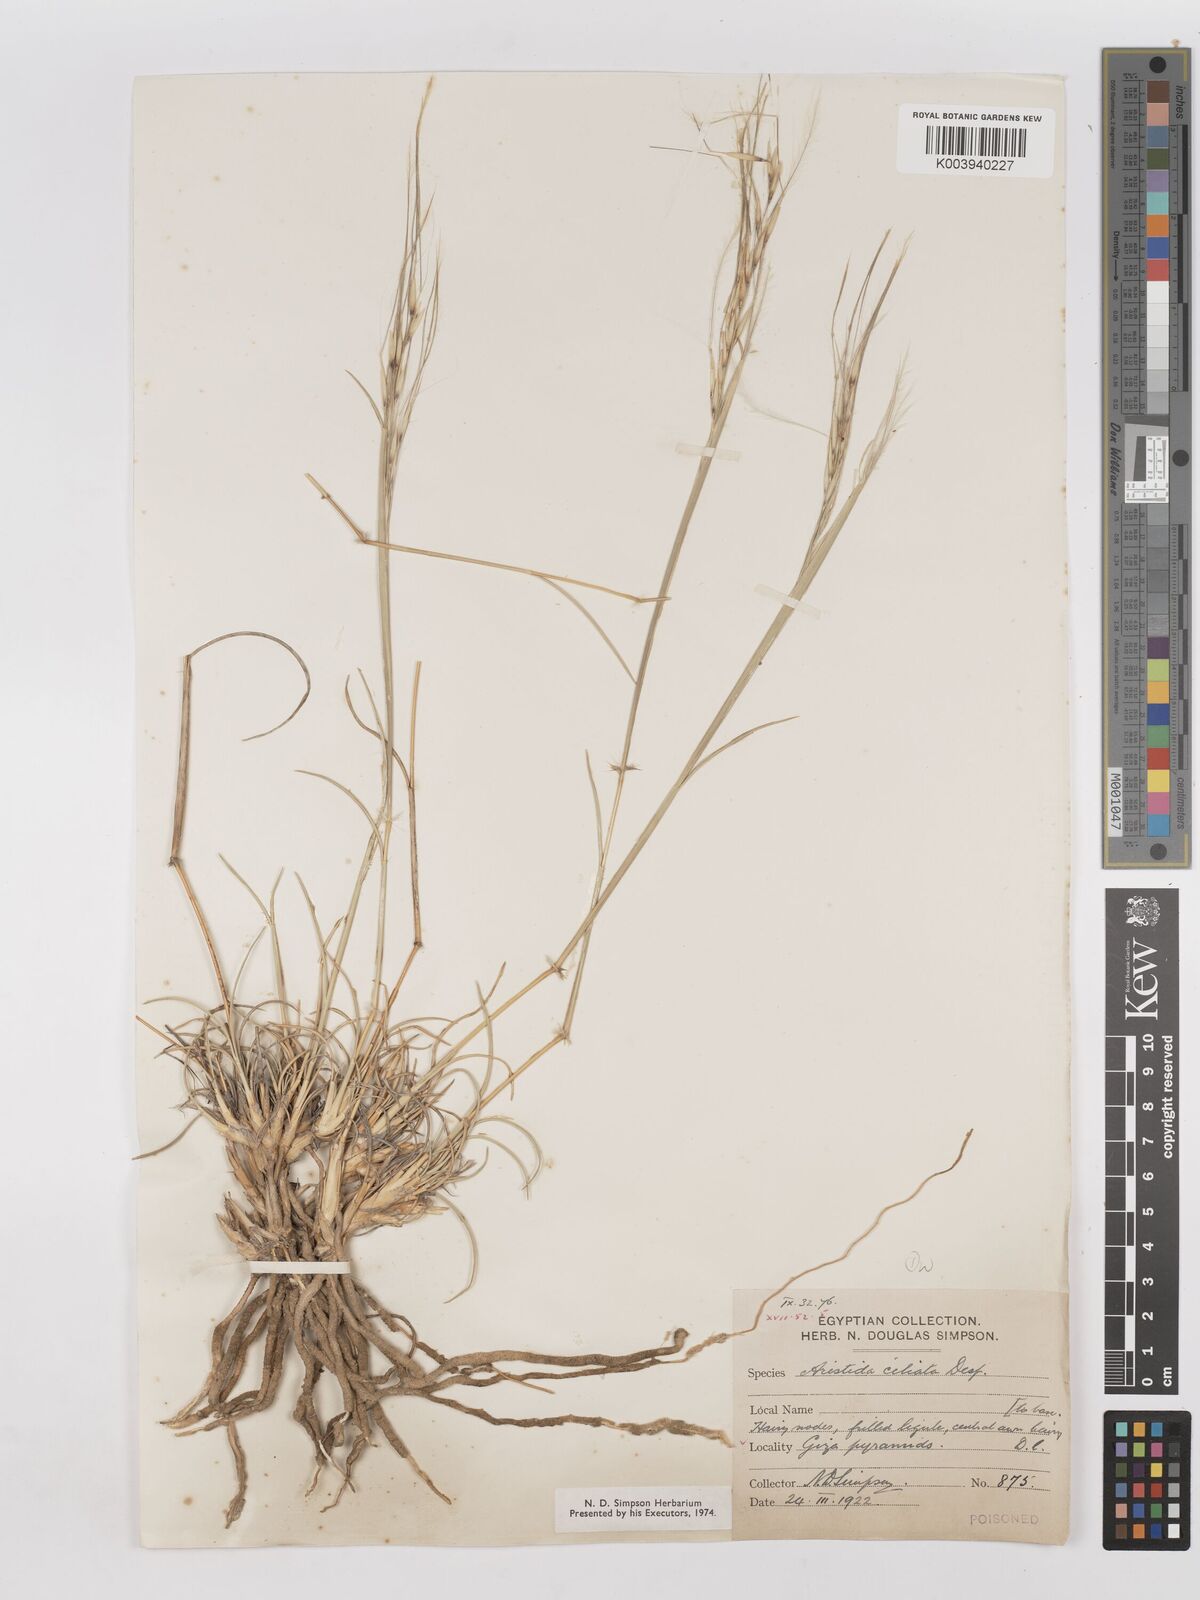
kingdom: Plantae
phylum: Tracheophyta
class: Liliopsida
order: Poales
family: Poaceae
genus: Stipagrostis
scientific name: Stipagrostis ciliata
